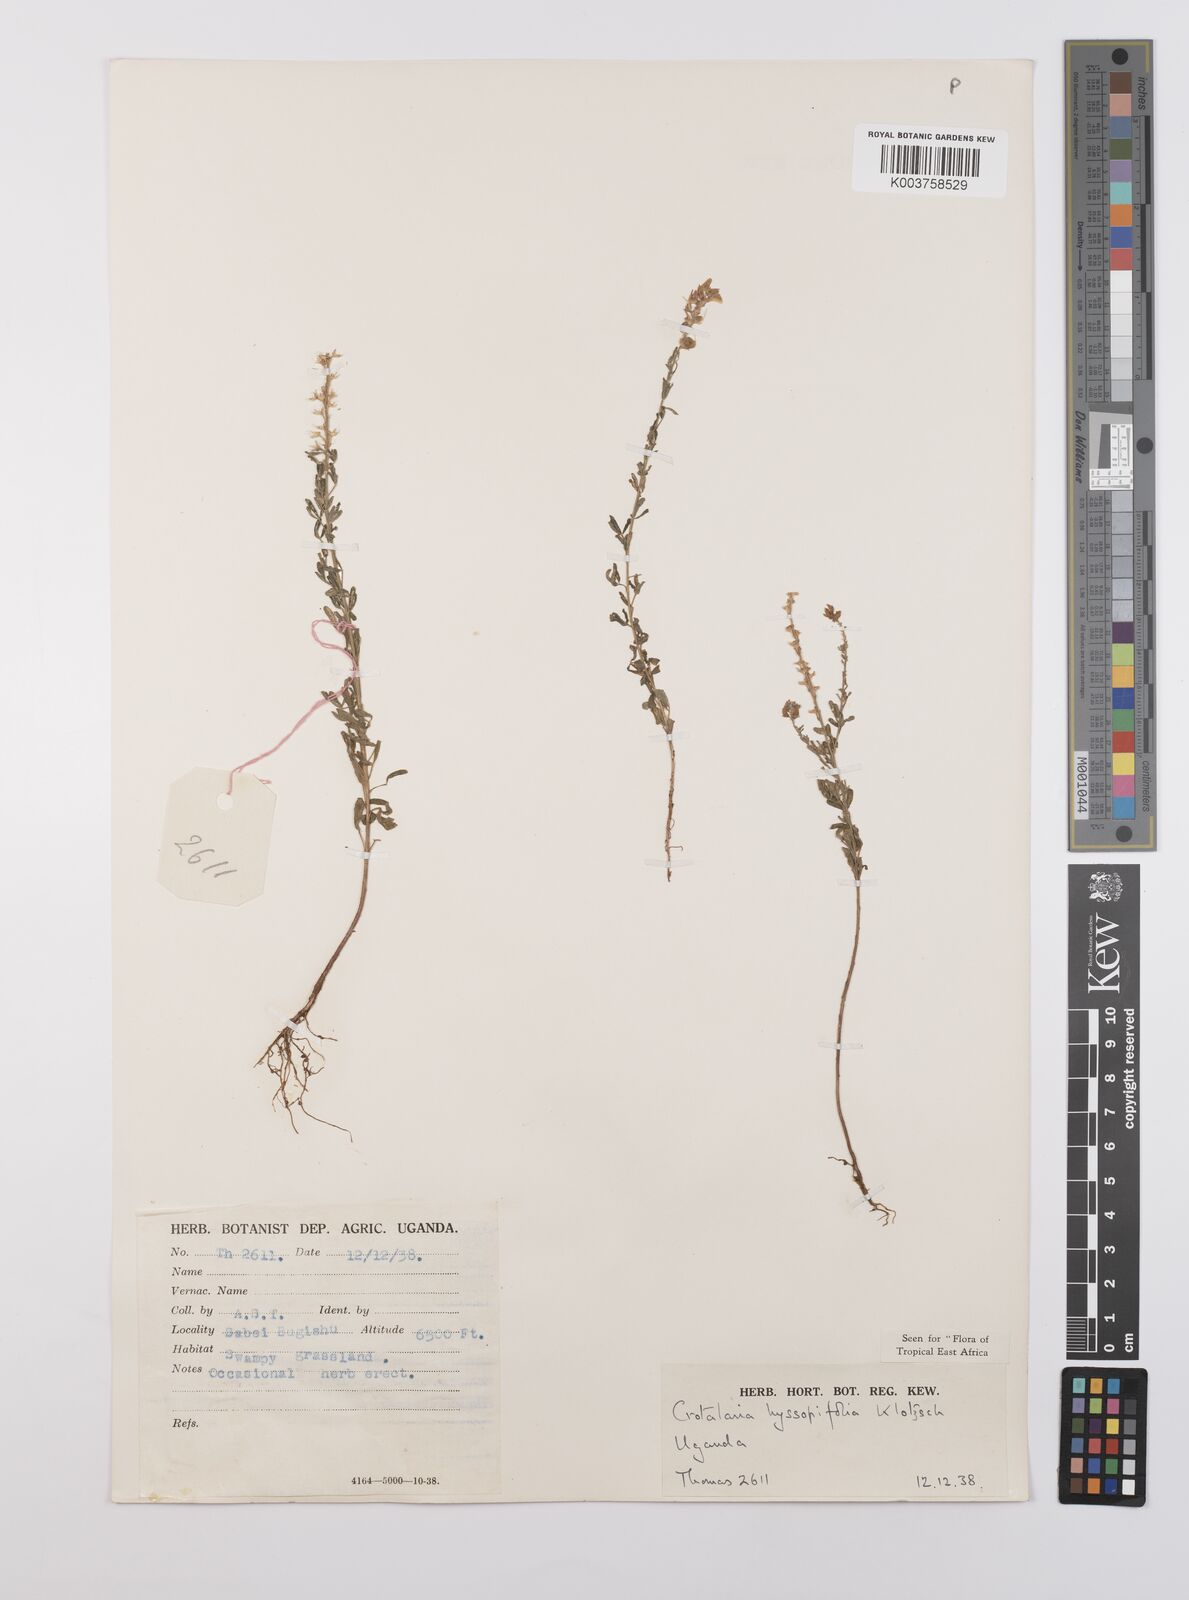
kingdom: Plantae
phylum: Tracheophyta
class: Magnoliopsida
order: Fabales
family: Fabaceae
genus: Crotalaria
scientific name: Crotalaria hyssopifolia
